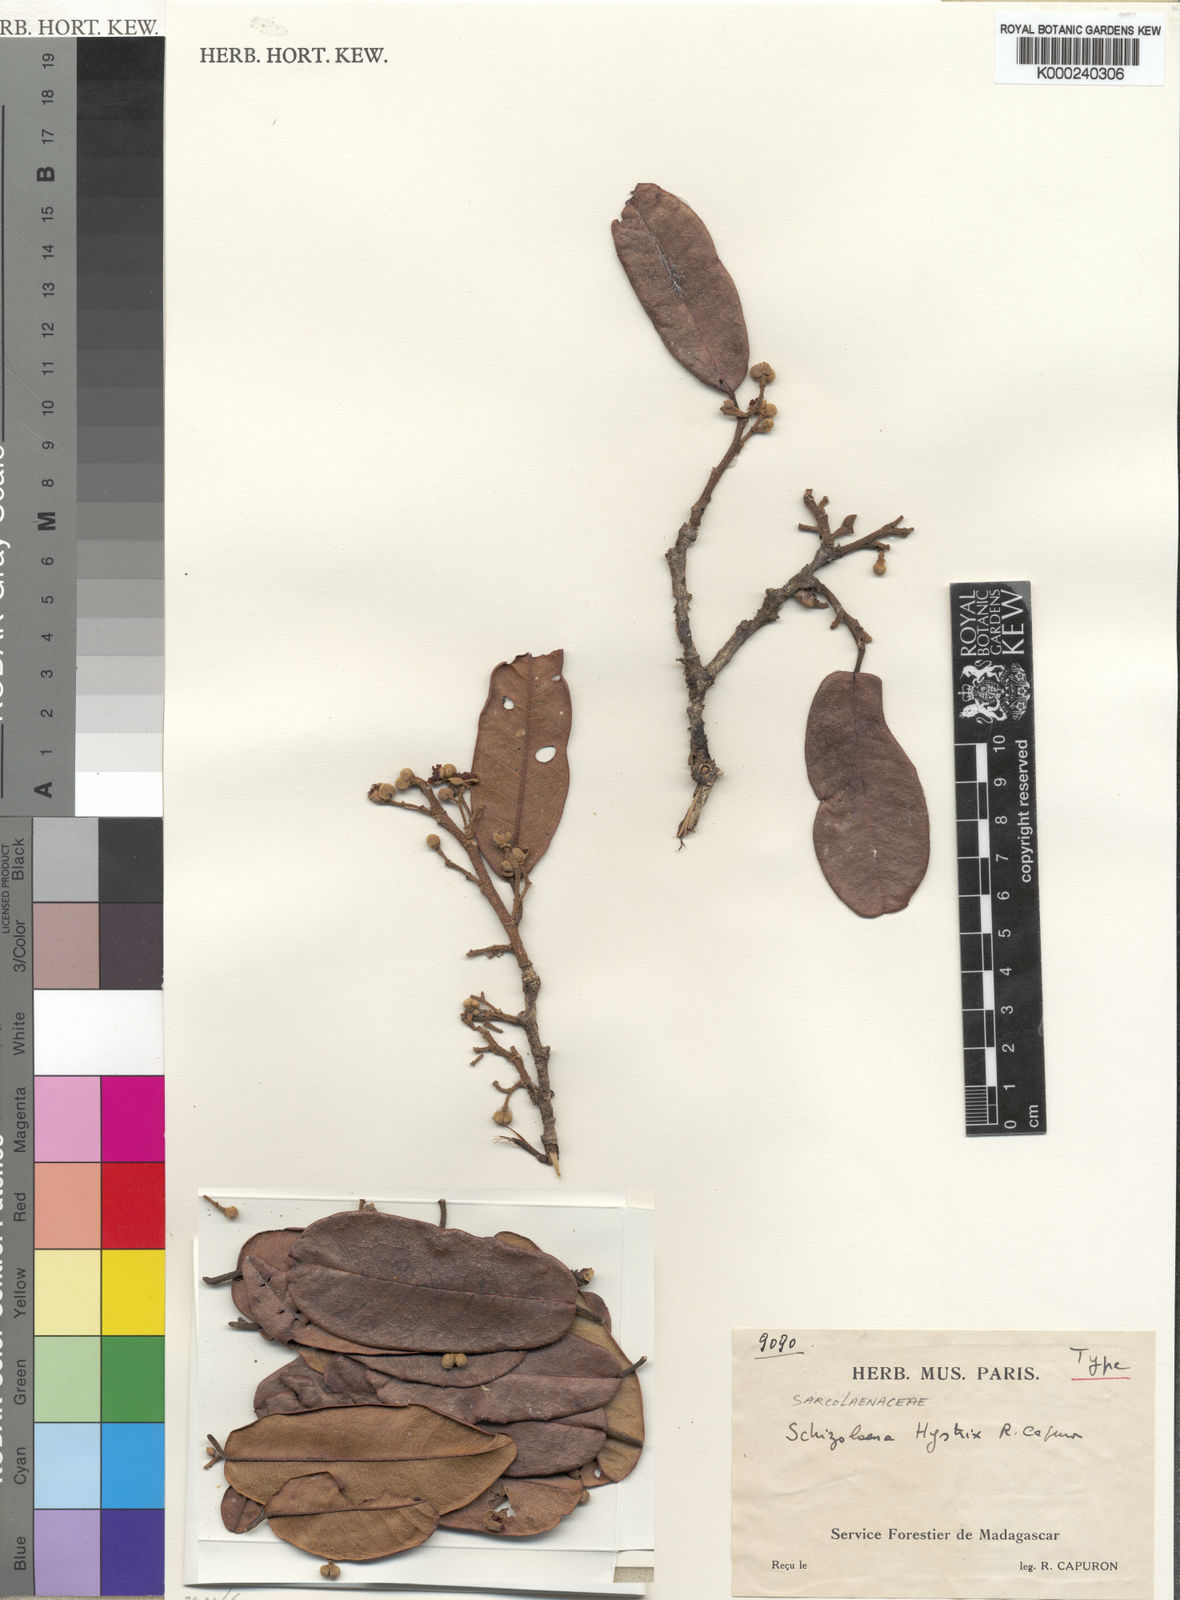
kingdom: Plantae
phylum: Tracheophyta
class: Magnoliopsida
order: Malvales
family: Sarcolaenaceae
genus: Schizolaena
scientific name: Schizolaena hystrix
